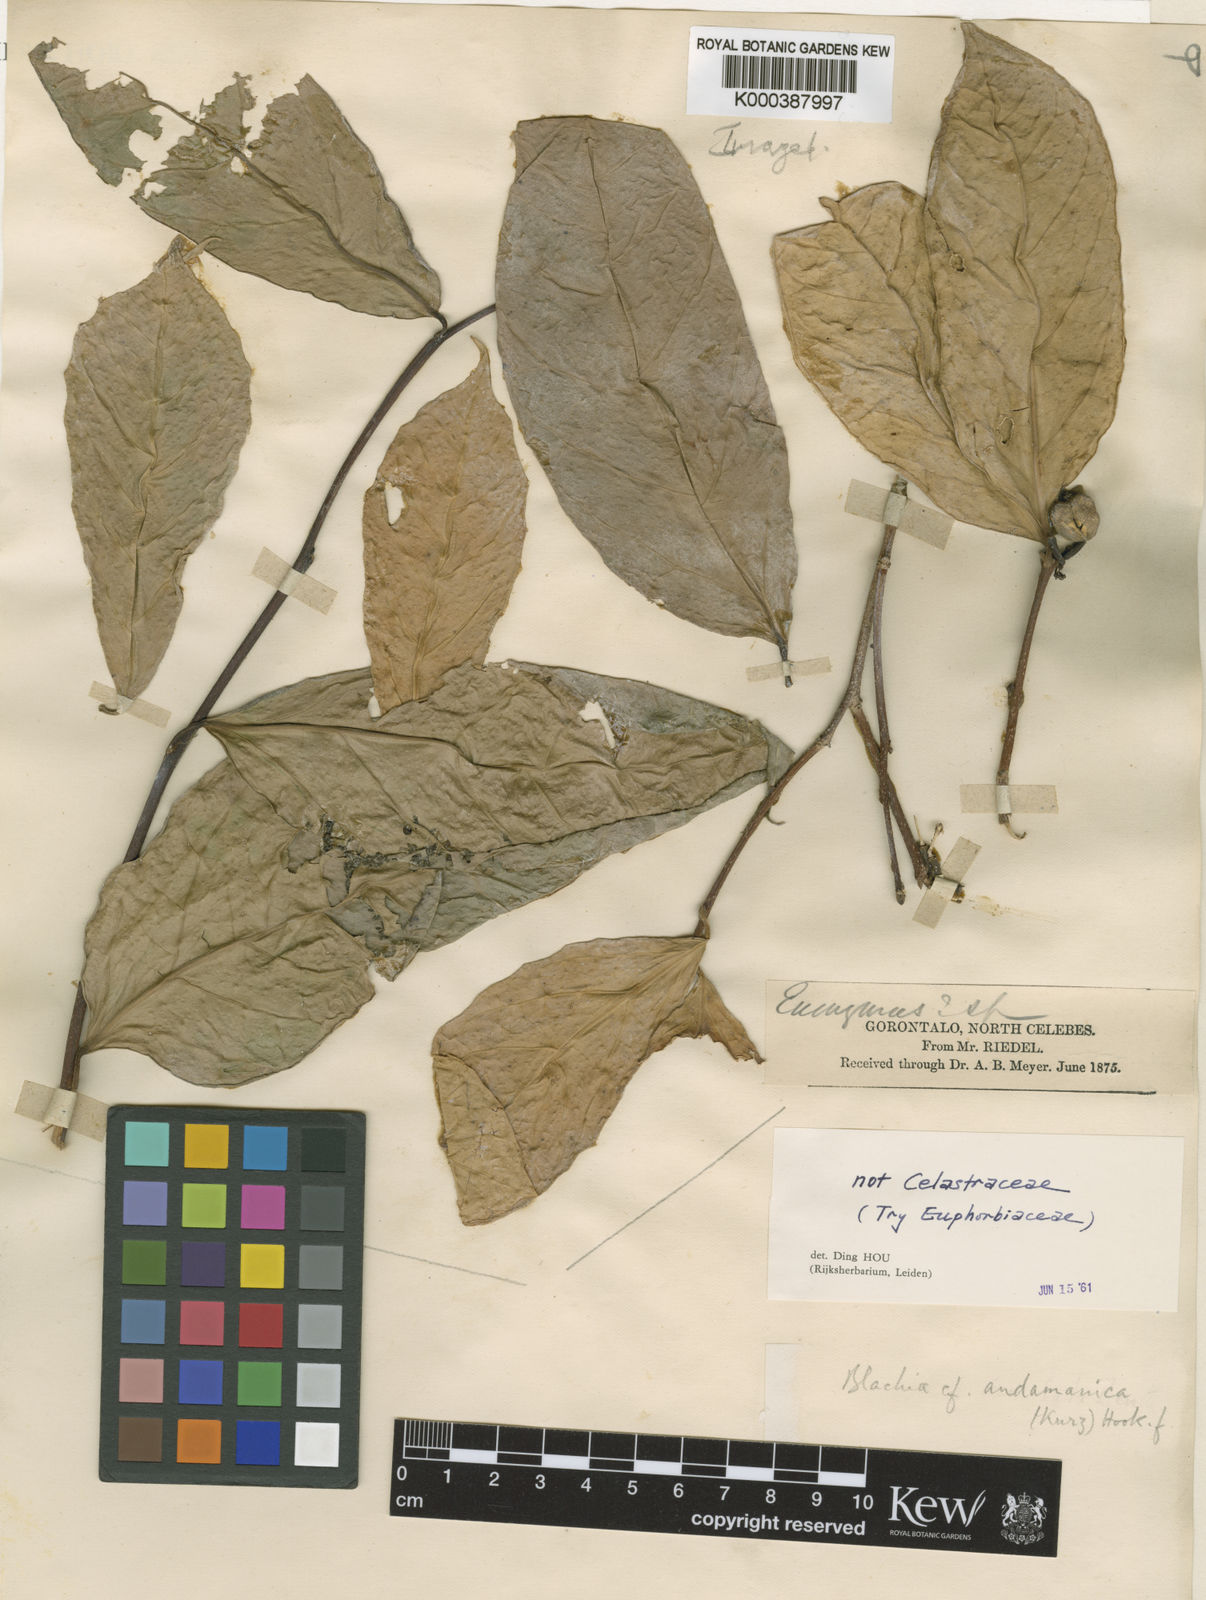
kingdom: Plantae
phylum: Tracheophyta
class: Magnoliopsida
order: Malpighiales
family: Euphorbiaceae
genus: Blachia
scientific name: Blachia andamanica
